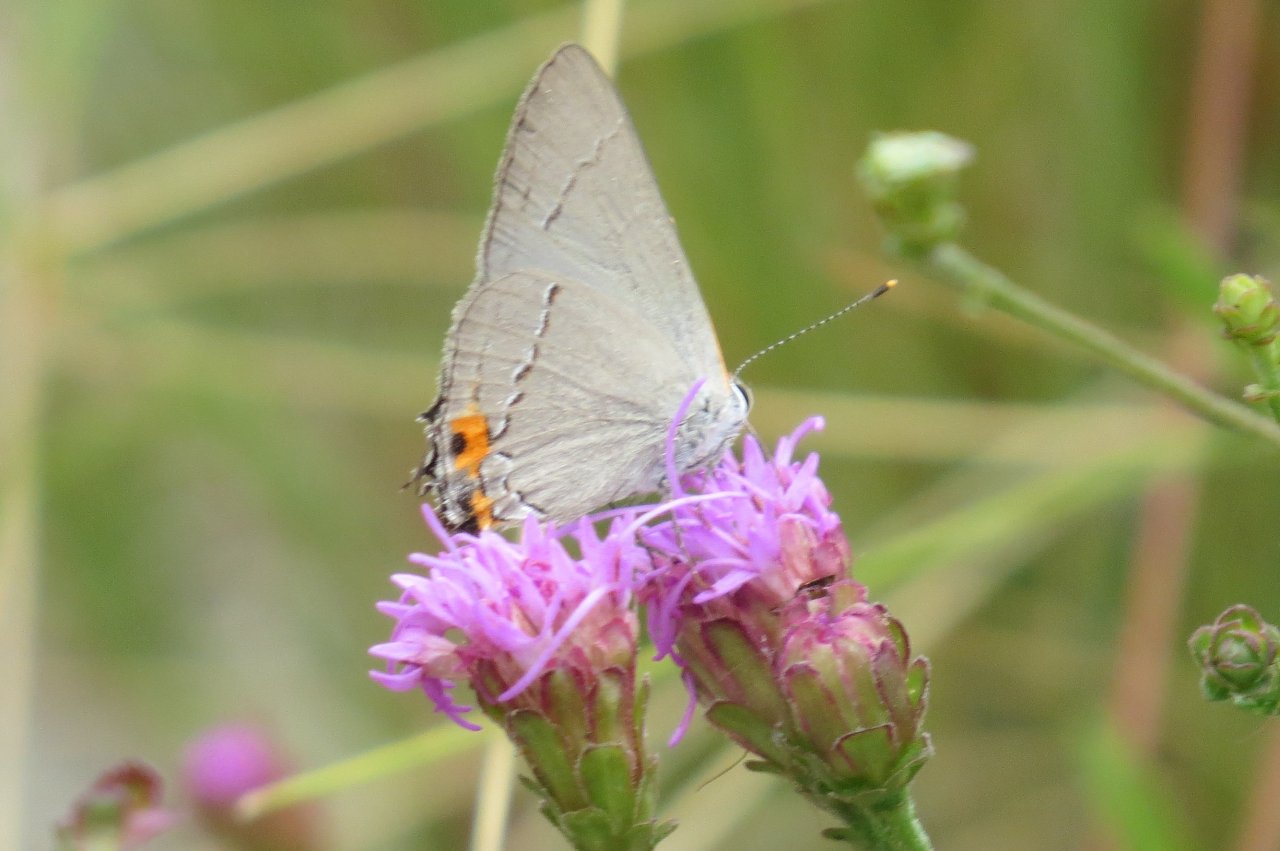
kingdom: Animalia
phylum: Arthropoda
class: Insecta
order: Lepidoptera
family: Lycaenidae
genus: Strymon
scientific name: Strymon melinus
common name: Gray Hairstreak
